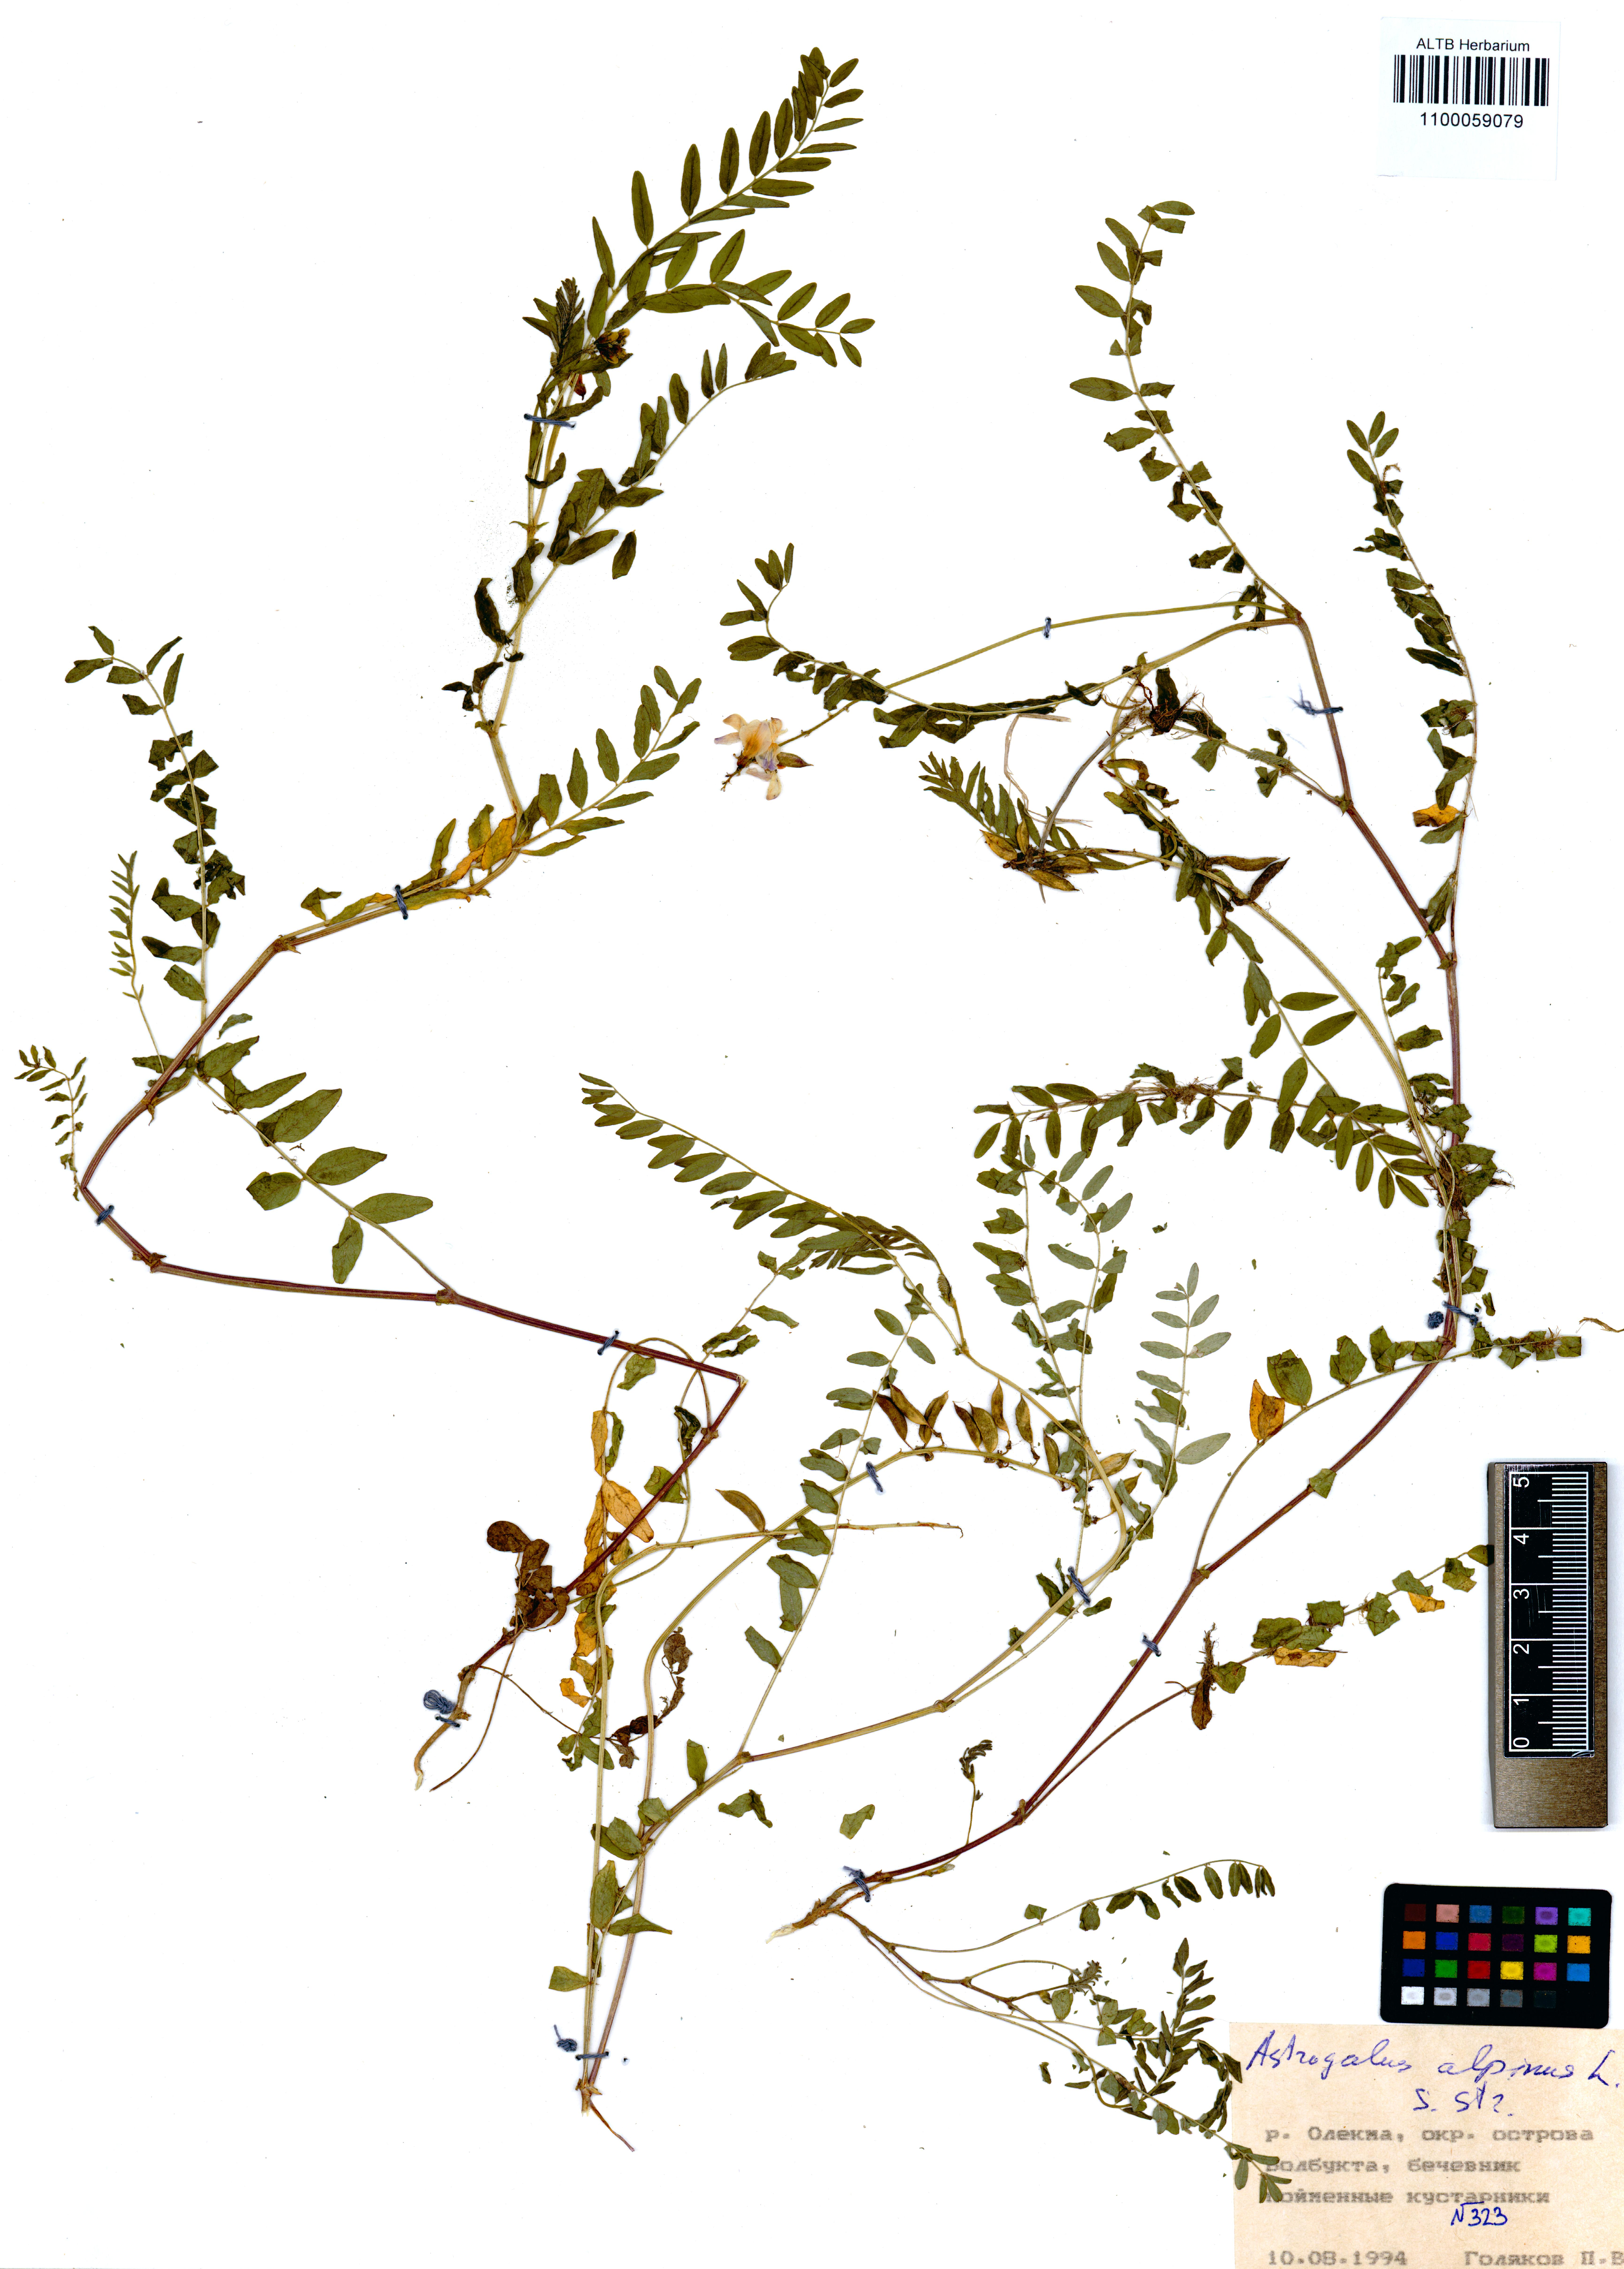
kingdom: Plantae
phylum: Tracheophyta
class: Magnoliopsida
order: Fabales
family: Fabaceae
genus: Astragalus
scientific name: Astragalus alpinus
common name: Alpine milk-vetch
